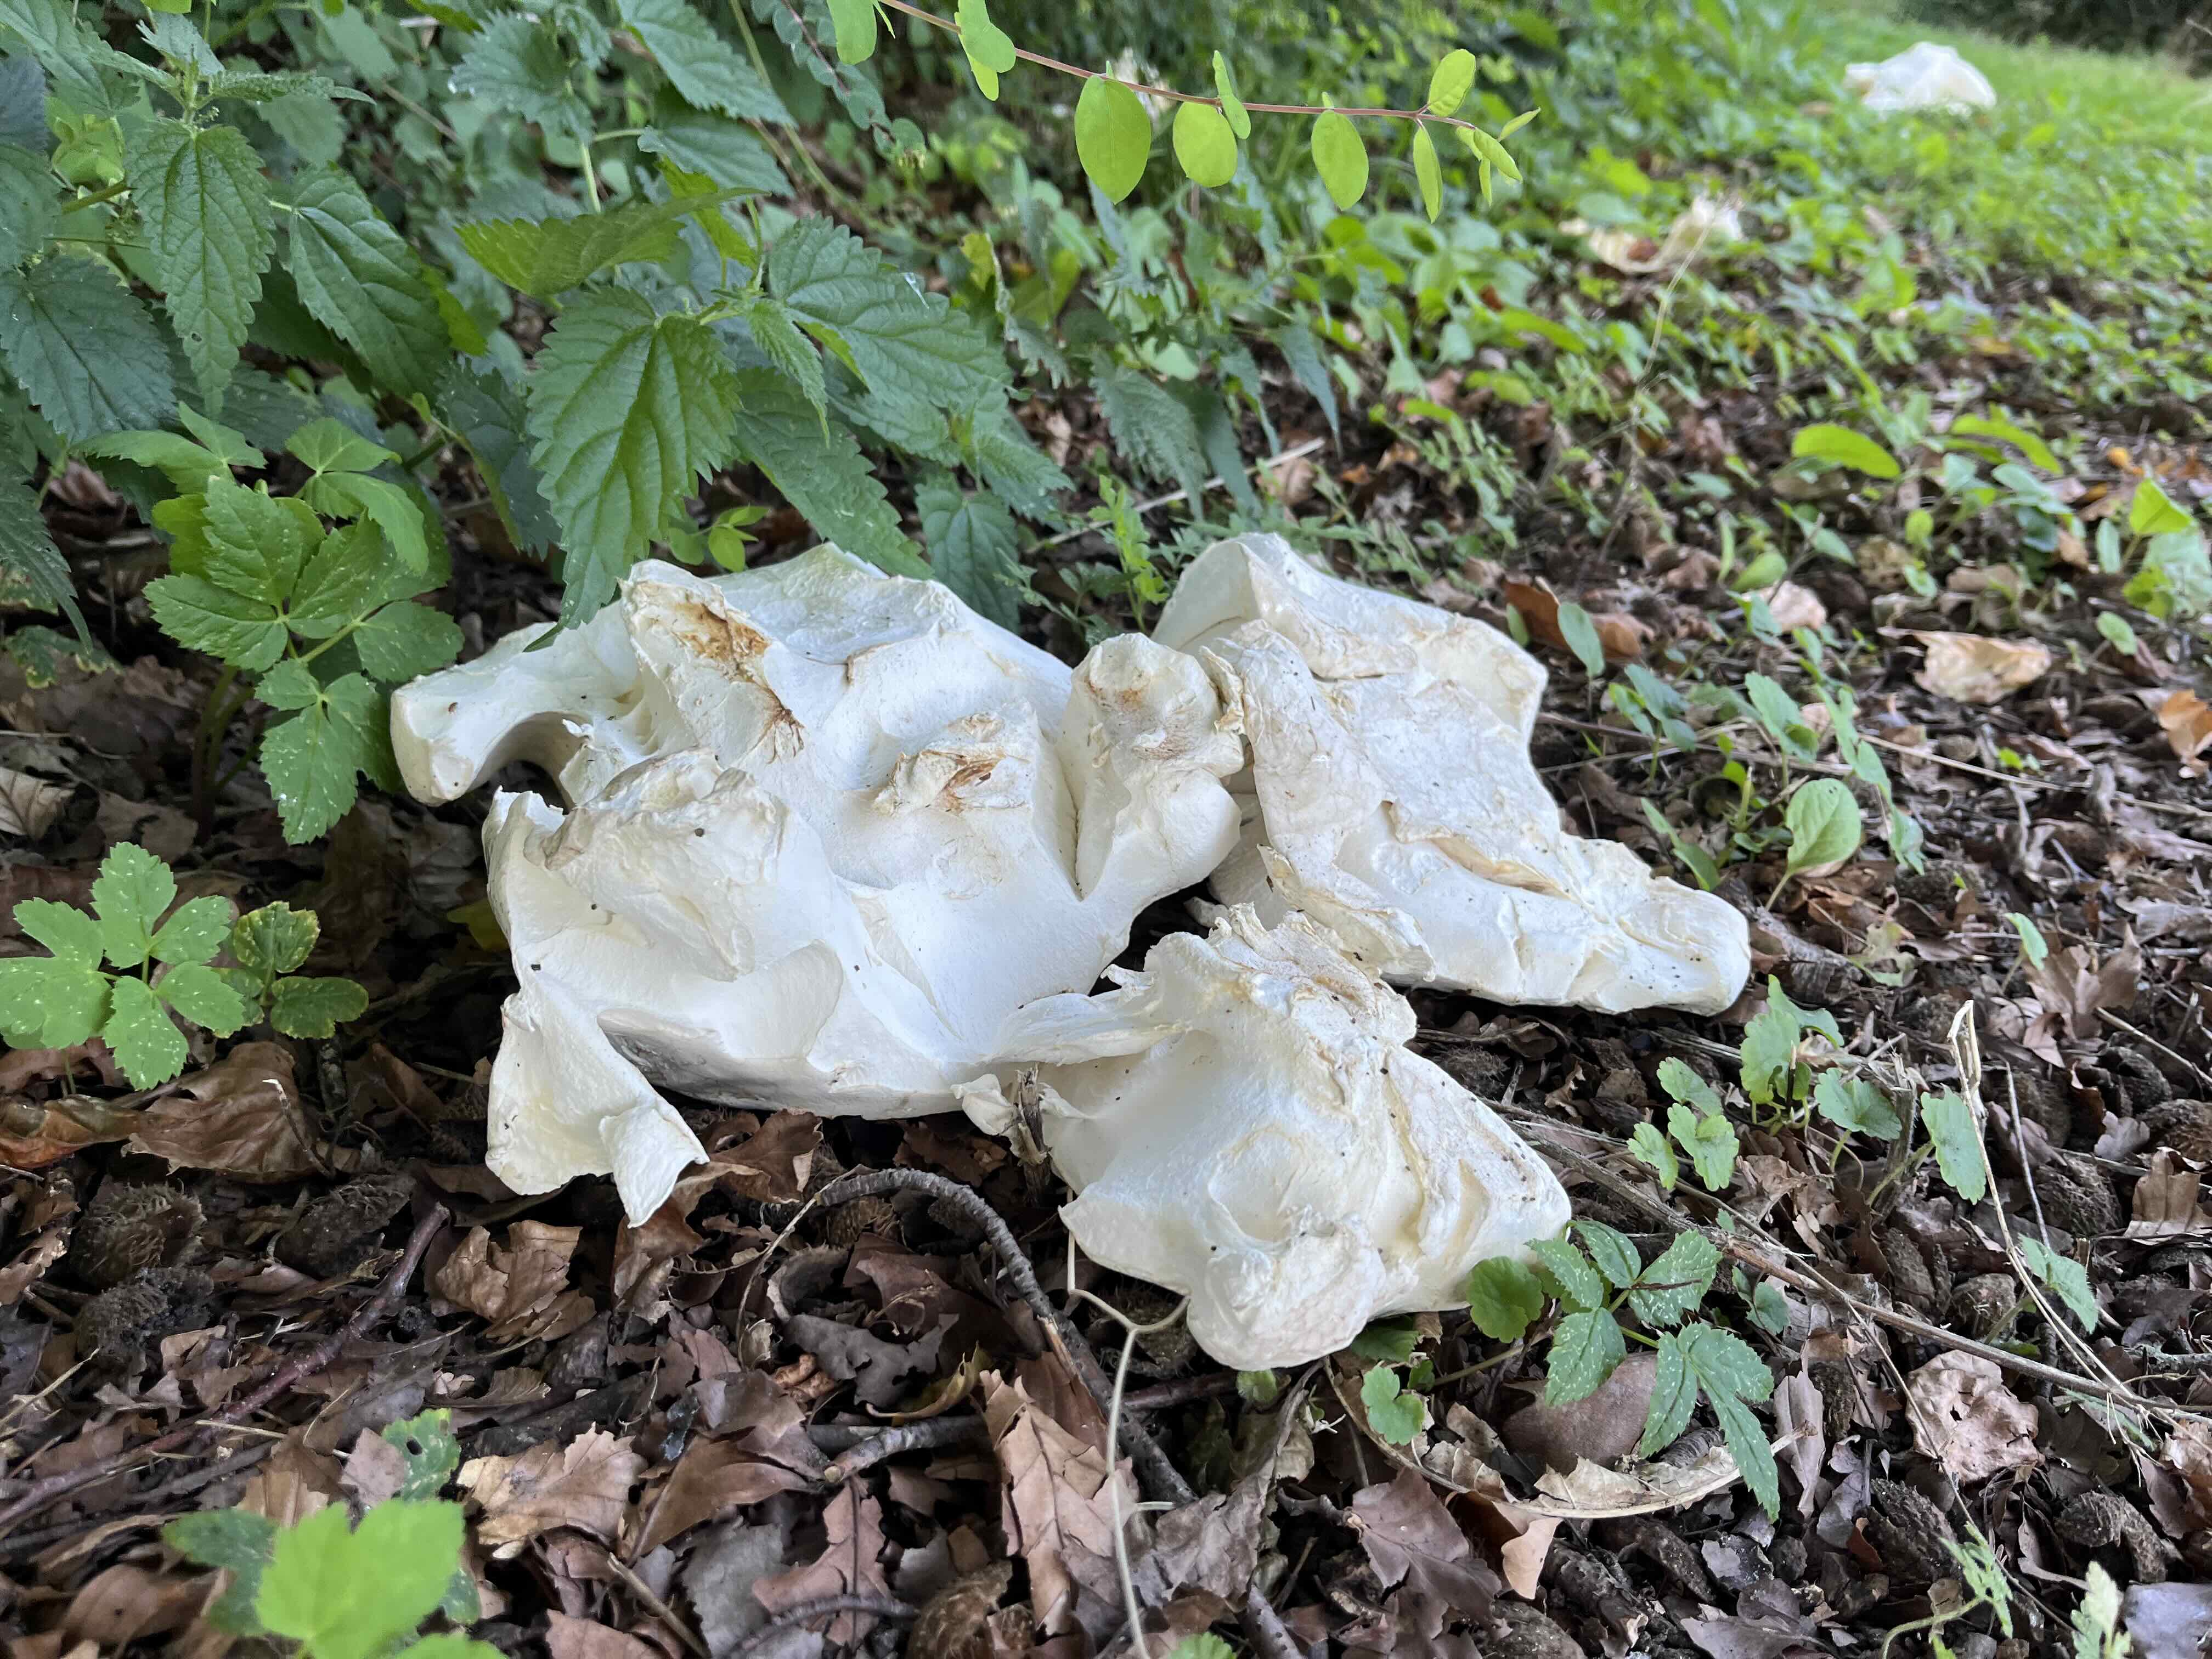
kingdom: Fungi
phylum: Basidiomycota
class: Agaricomycetes
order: Agaricales
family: Lycoperdaceae
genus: Calvatia
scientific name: Calvatia gigantea
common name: kæmpestøvbold
